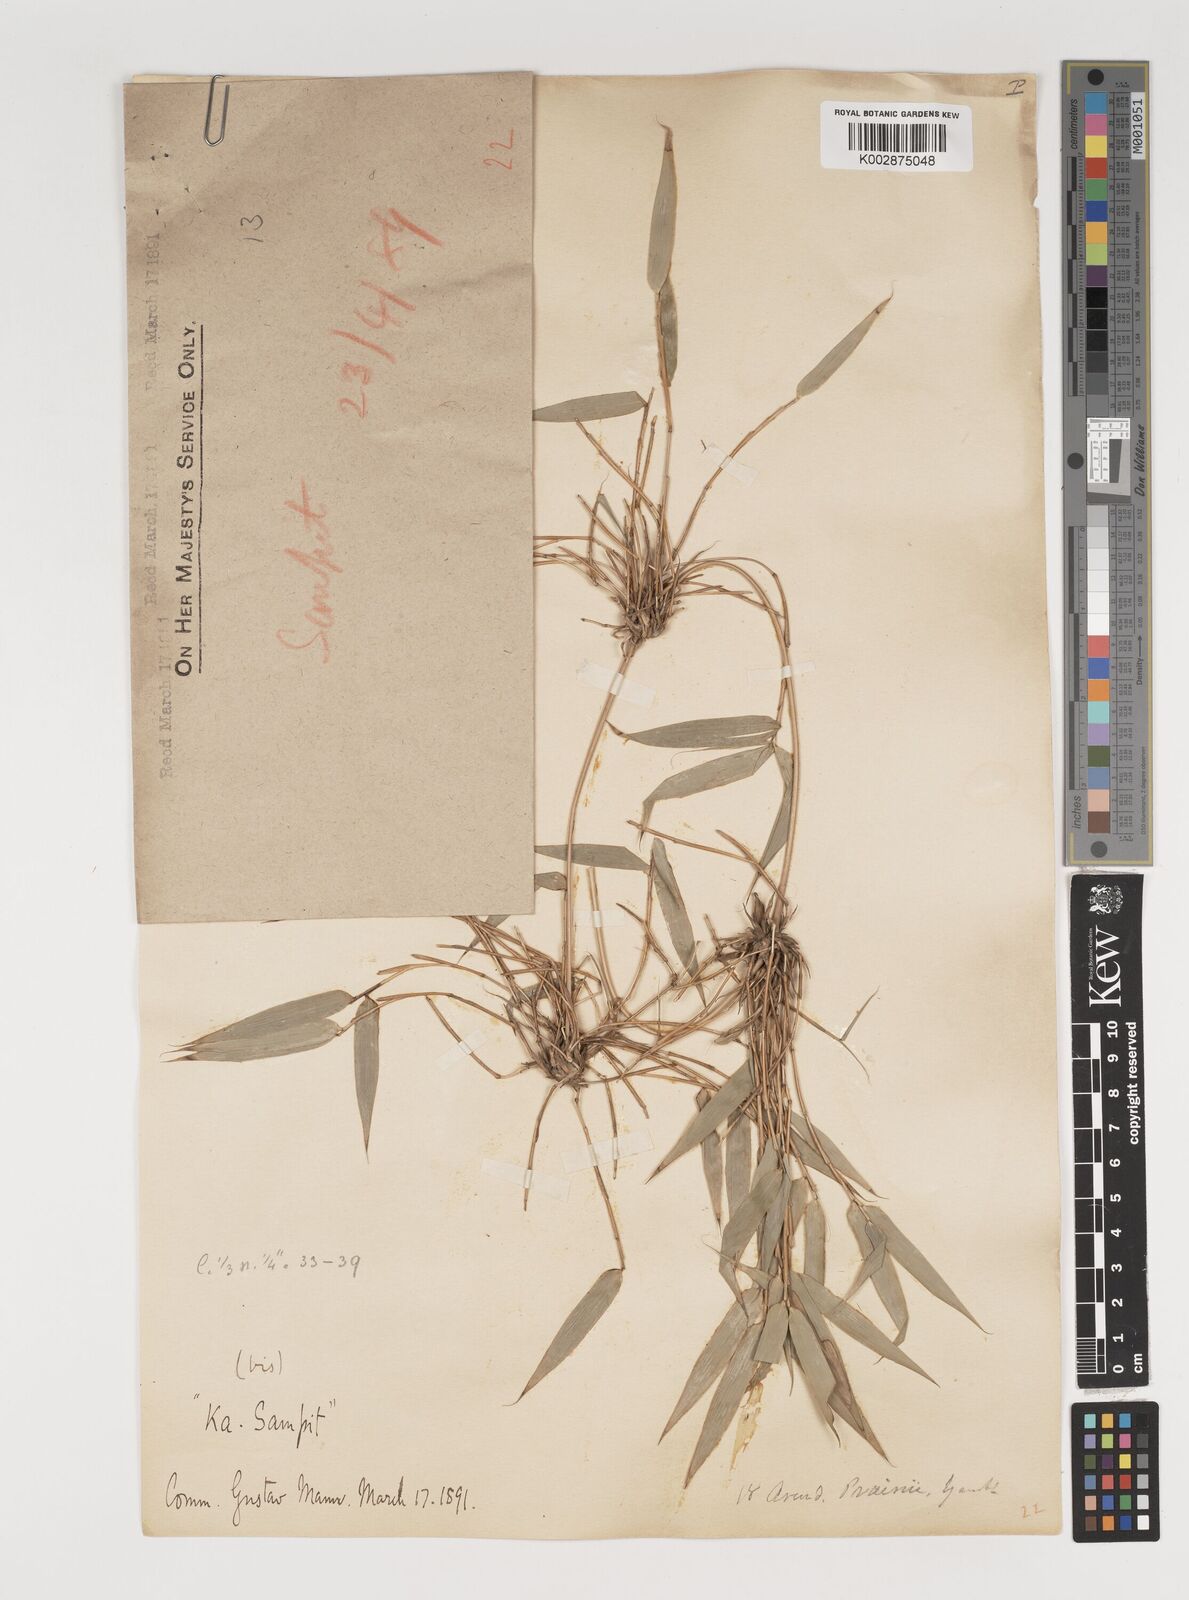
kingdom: Plantae
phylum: Tracheophyta
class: Liliopsida
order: Poales
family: Poaceae
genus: Neomicrocalamus
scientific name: Neomicrocalamus prainii
